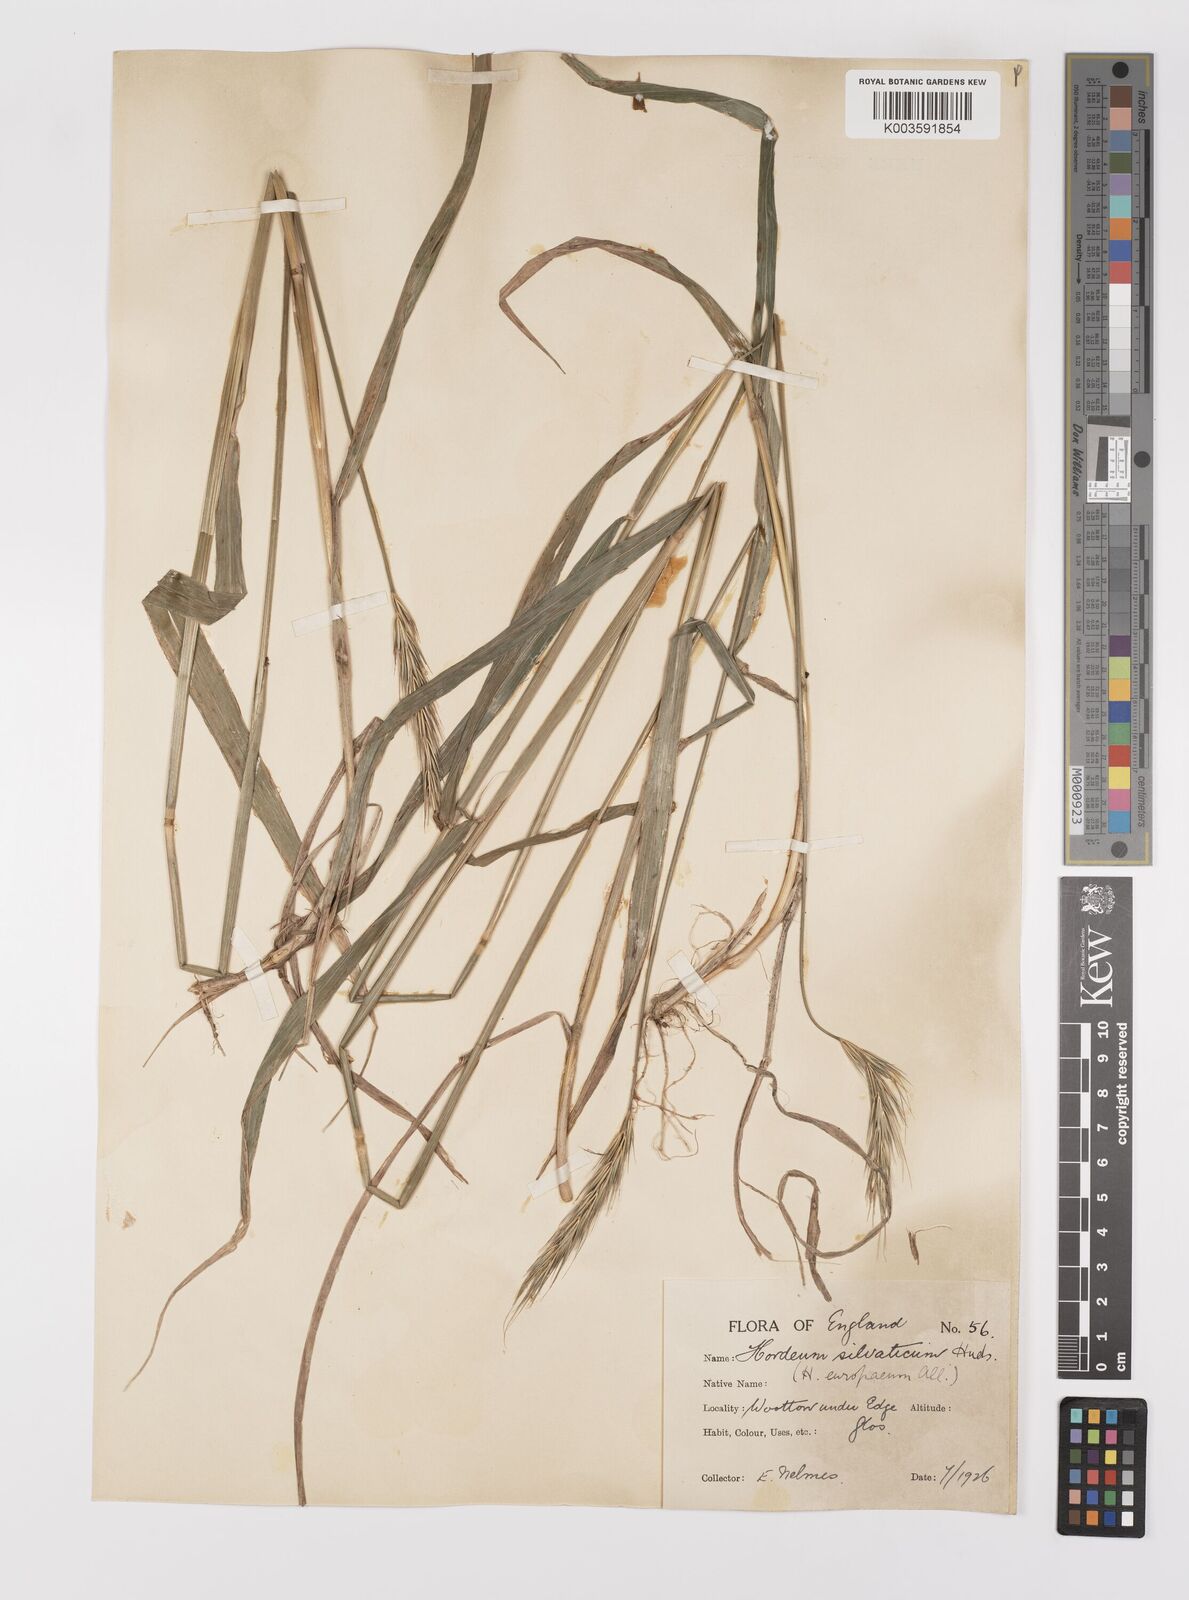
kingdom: Plantae
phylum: Tracheophyta
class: Liliopsida
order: Poales
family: Poaceae
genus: Hordelymus
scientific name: Hordelymus europaeus
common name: Wood-barley
